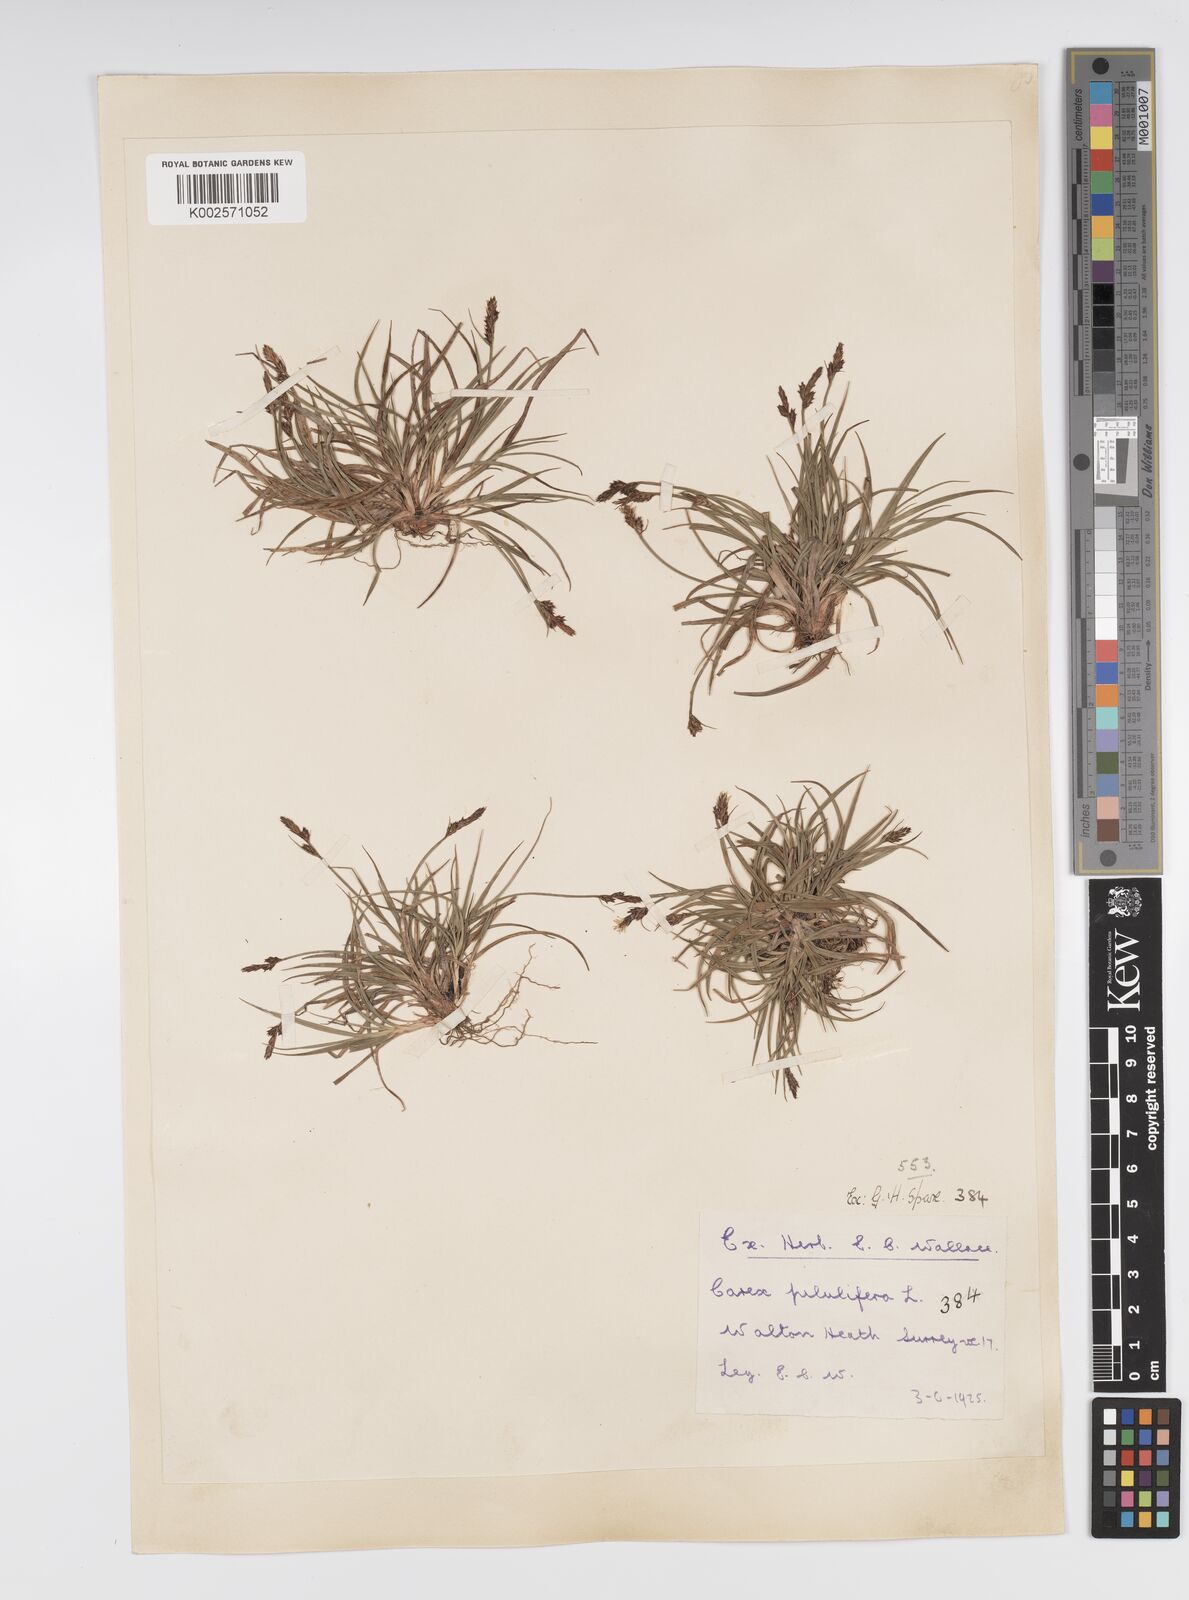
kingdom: Plantae
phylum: Tracheophyta
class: Liliopsida
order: Poales
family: Cyperaceae
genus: Carex
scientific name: Carex pilulifera
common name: Pill sedge
